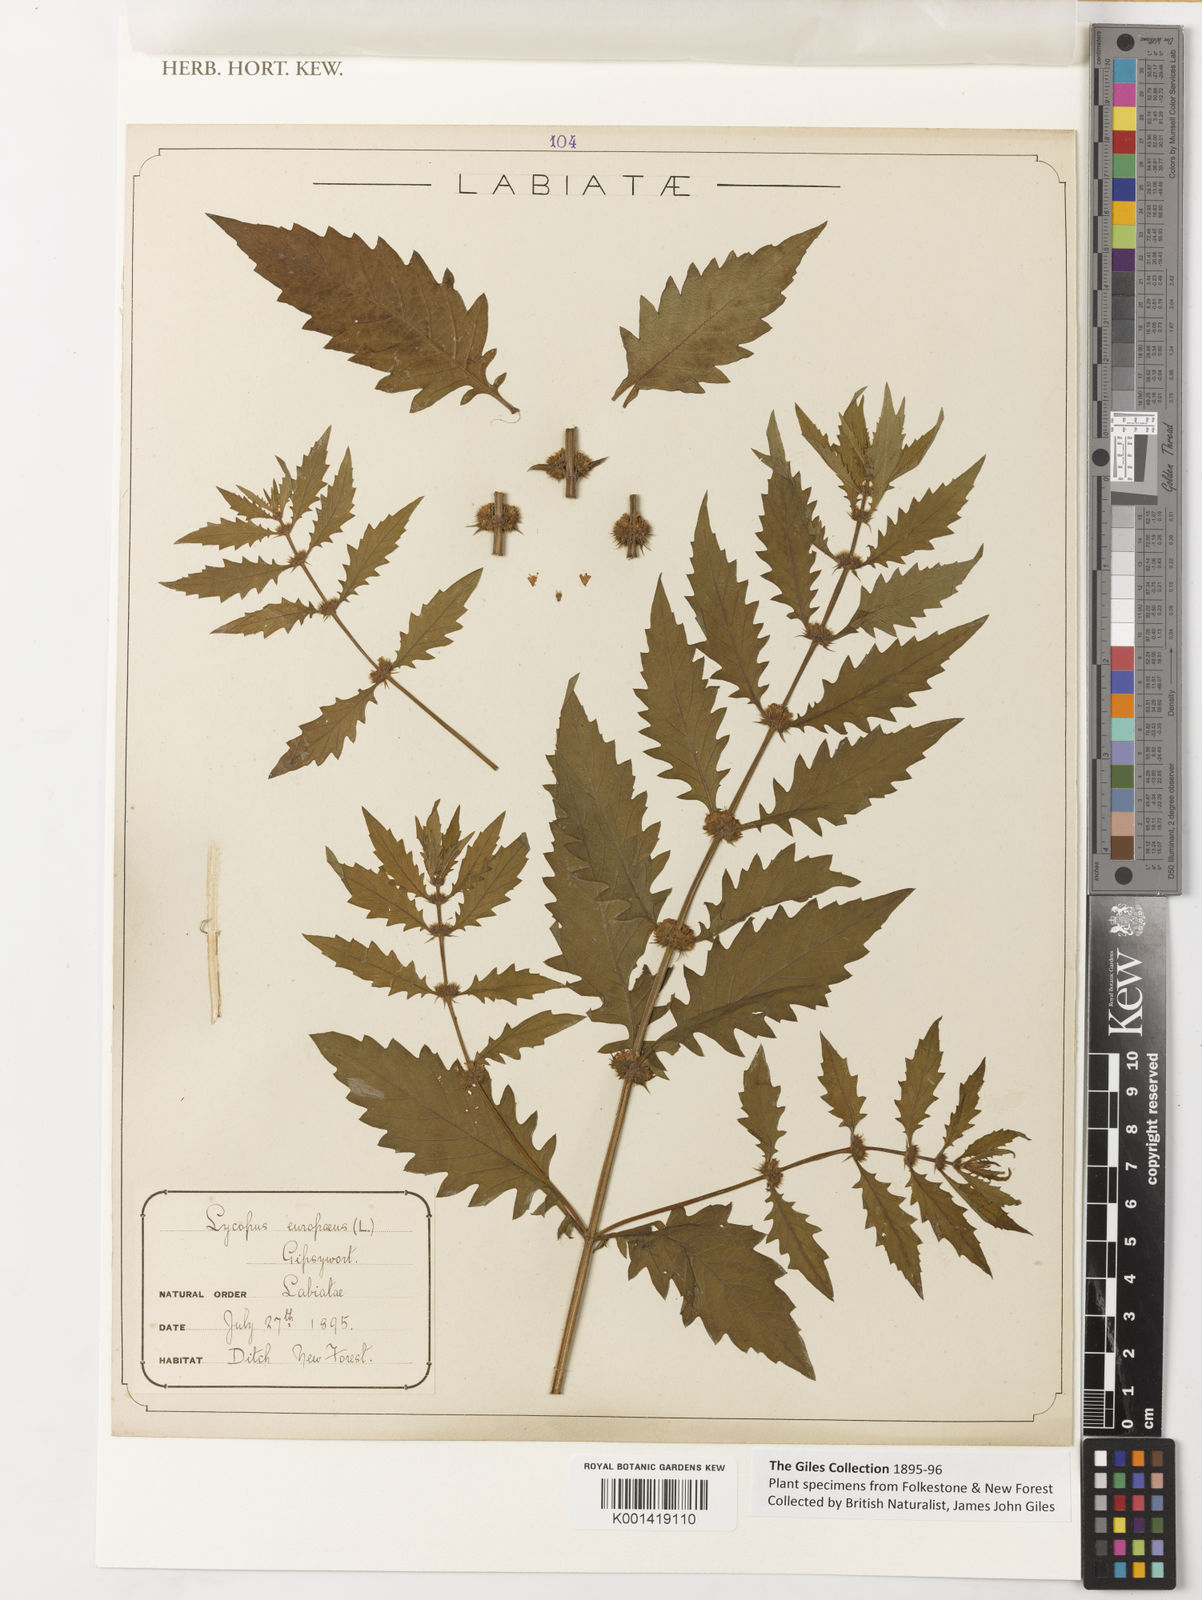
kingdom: Plantae
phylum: Tracheophyta
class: Magnoliopsida
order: Lamiales
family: Lamiaceae
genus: Lycopus
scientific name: Lycopus
